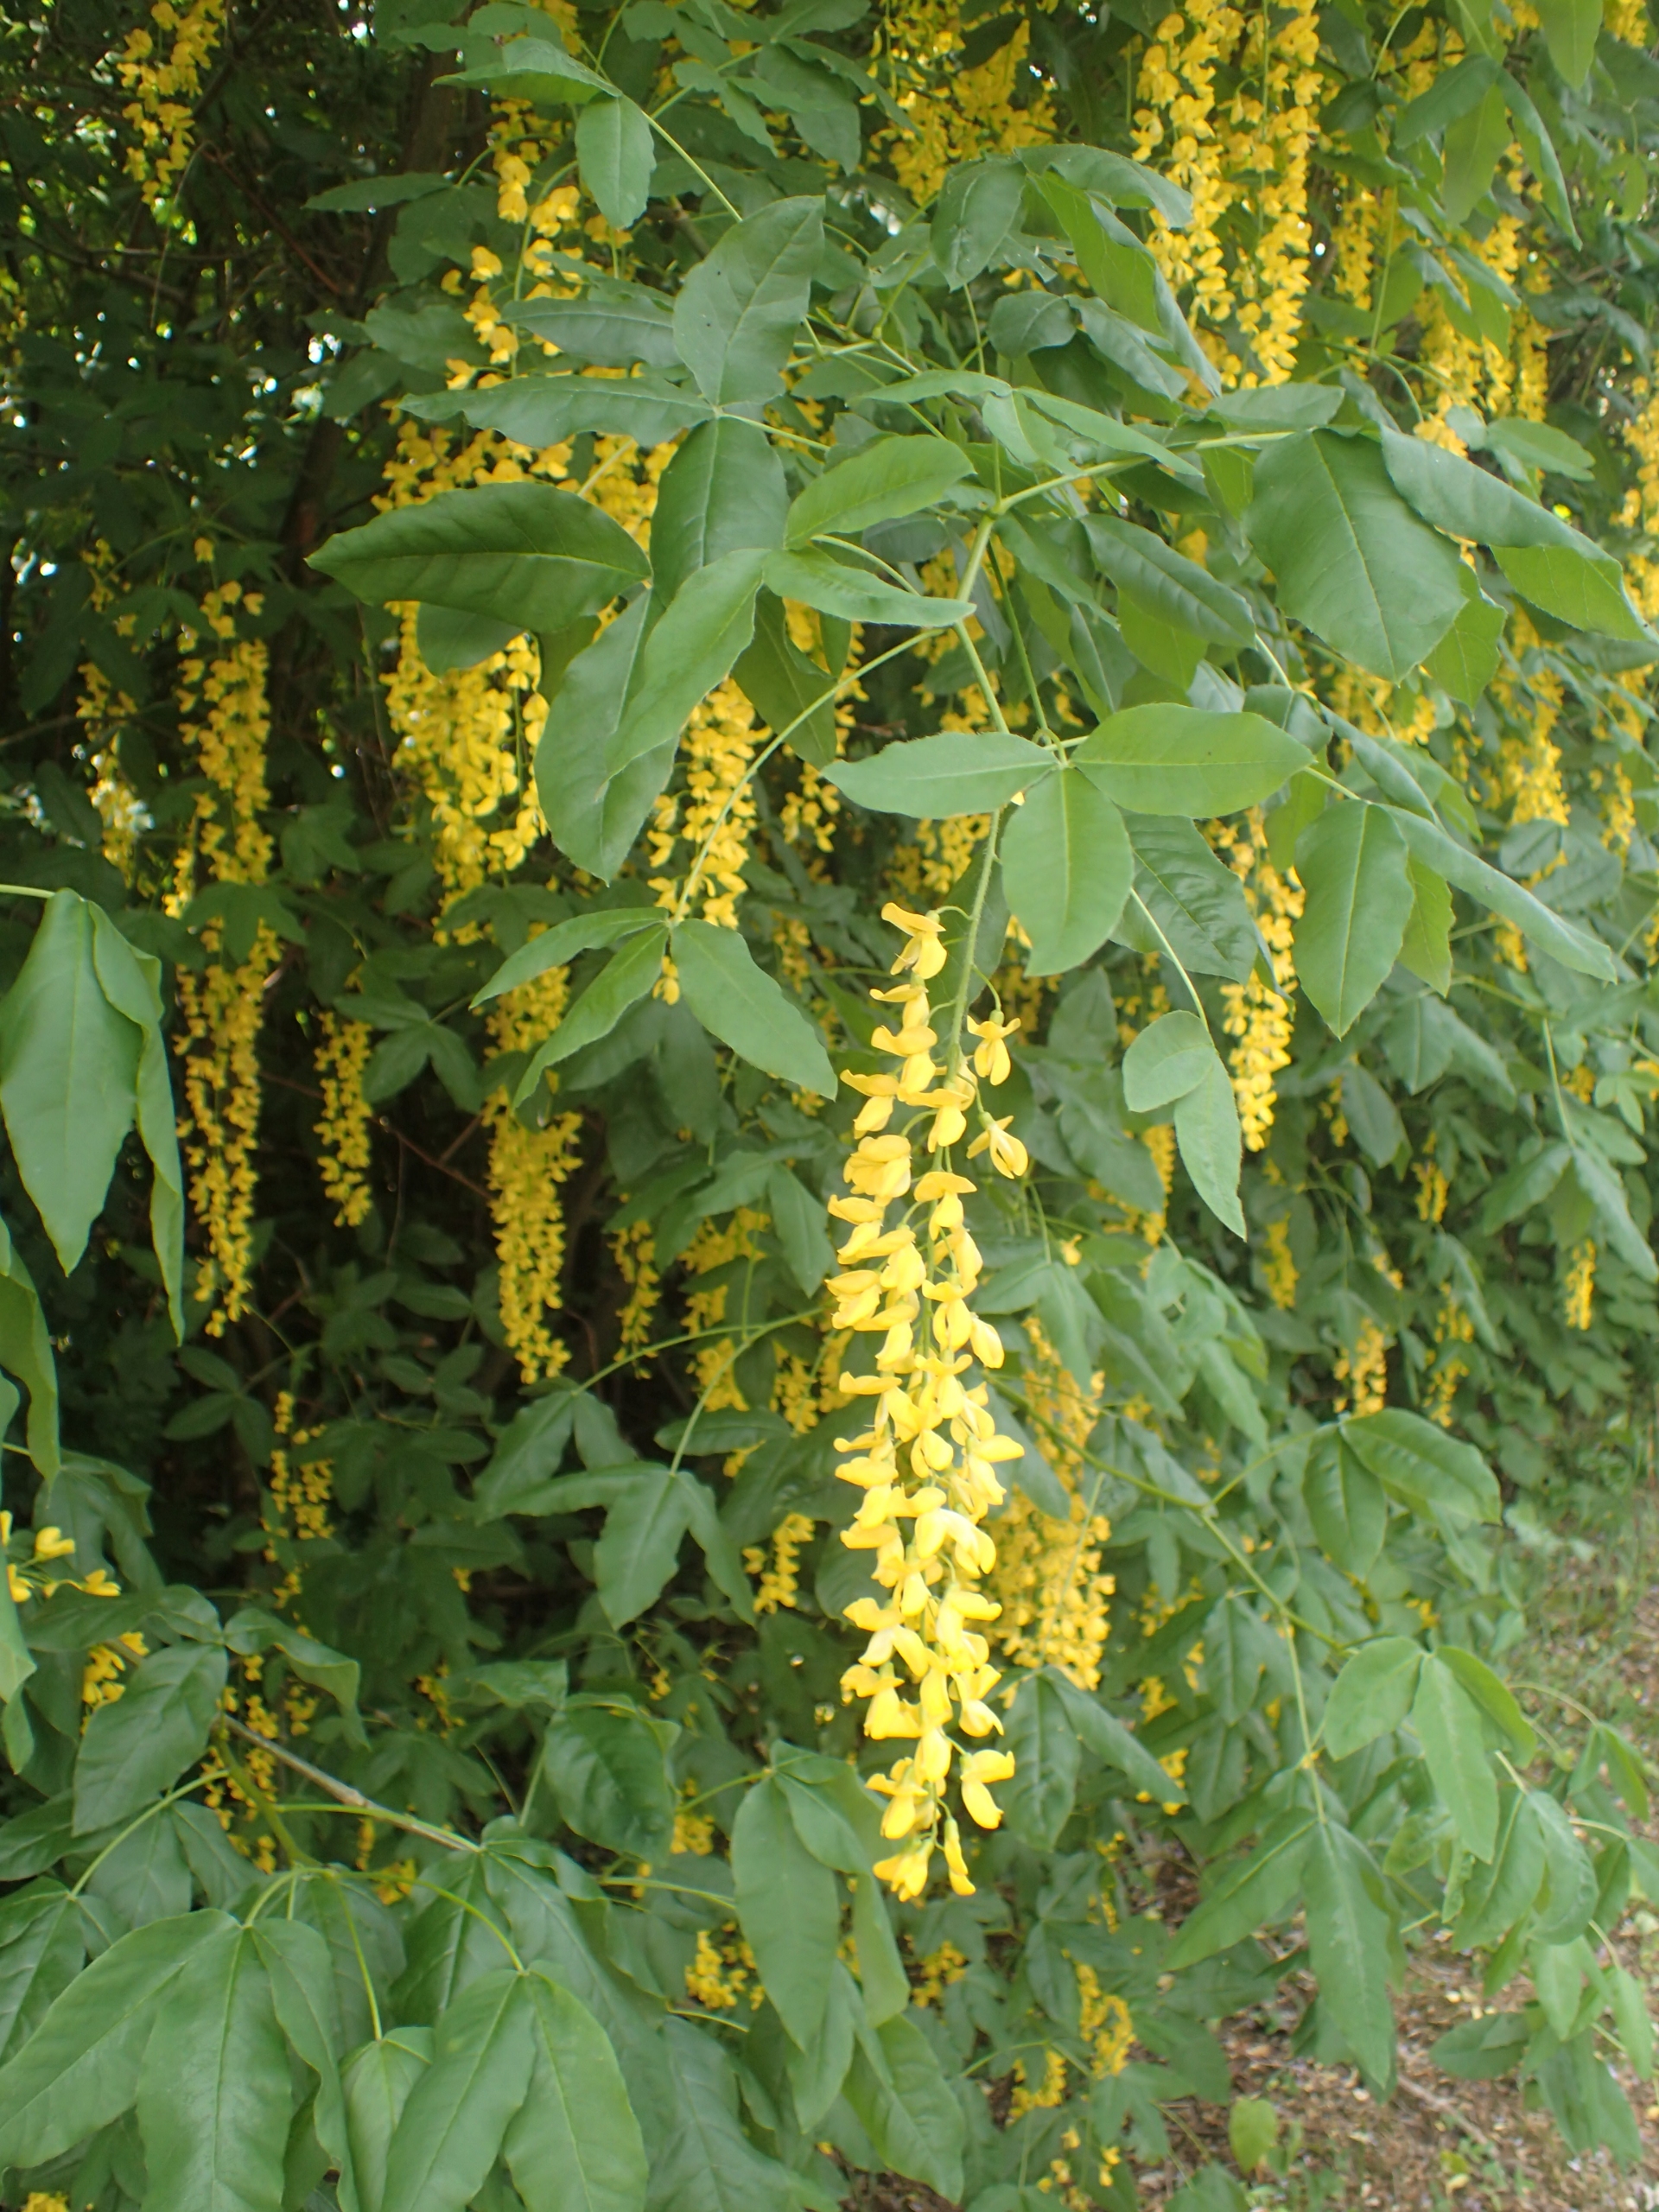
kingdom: Plantae
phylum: Tracheophyta
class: Magnoliopsida
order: Fabales
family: Fabaceae
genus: Laburnum
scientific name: Laburnum anagyroides
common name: Guldregn
